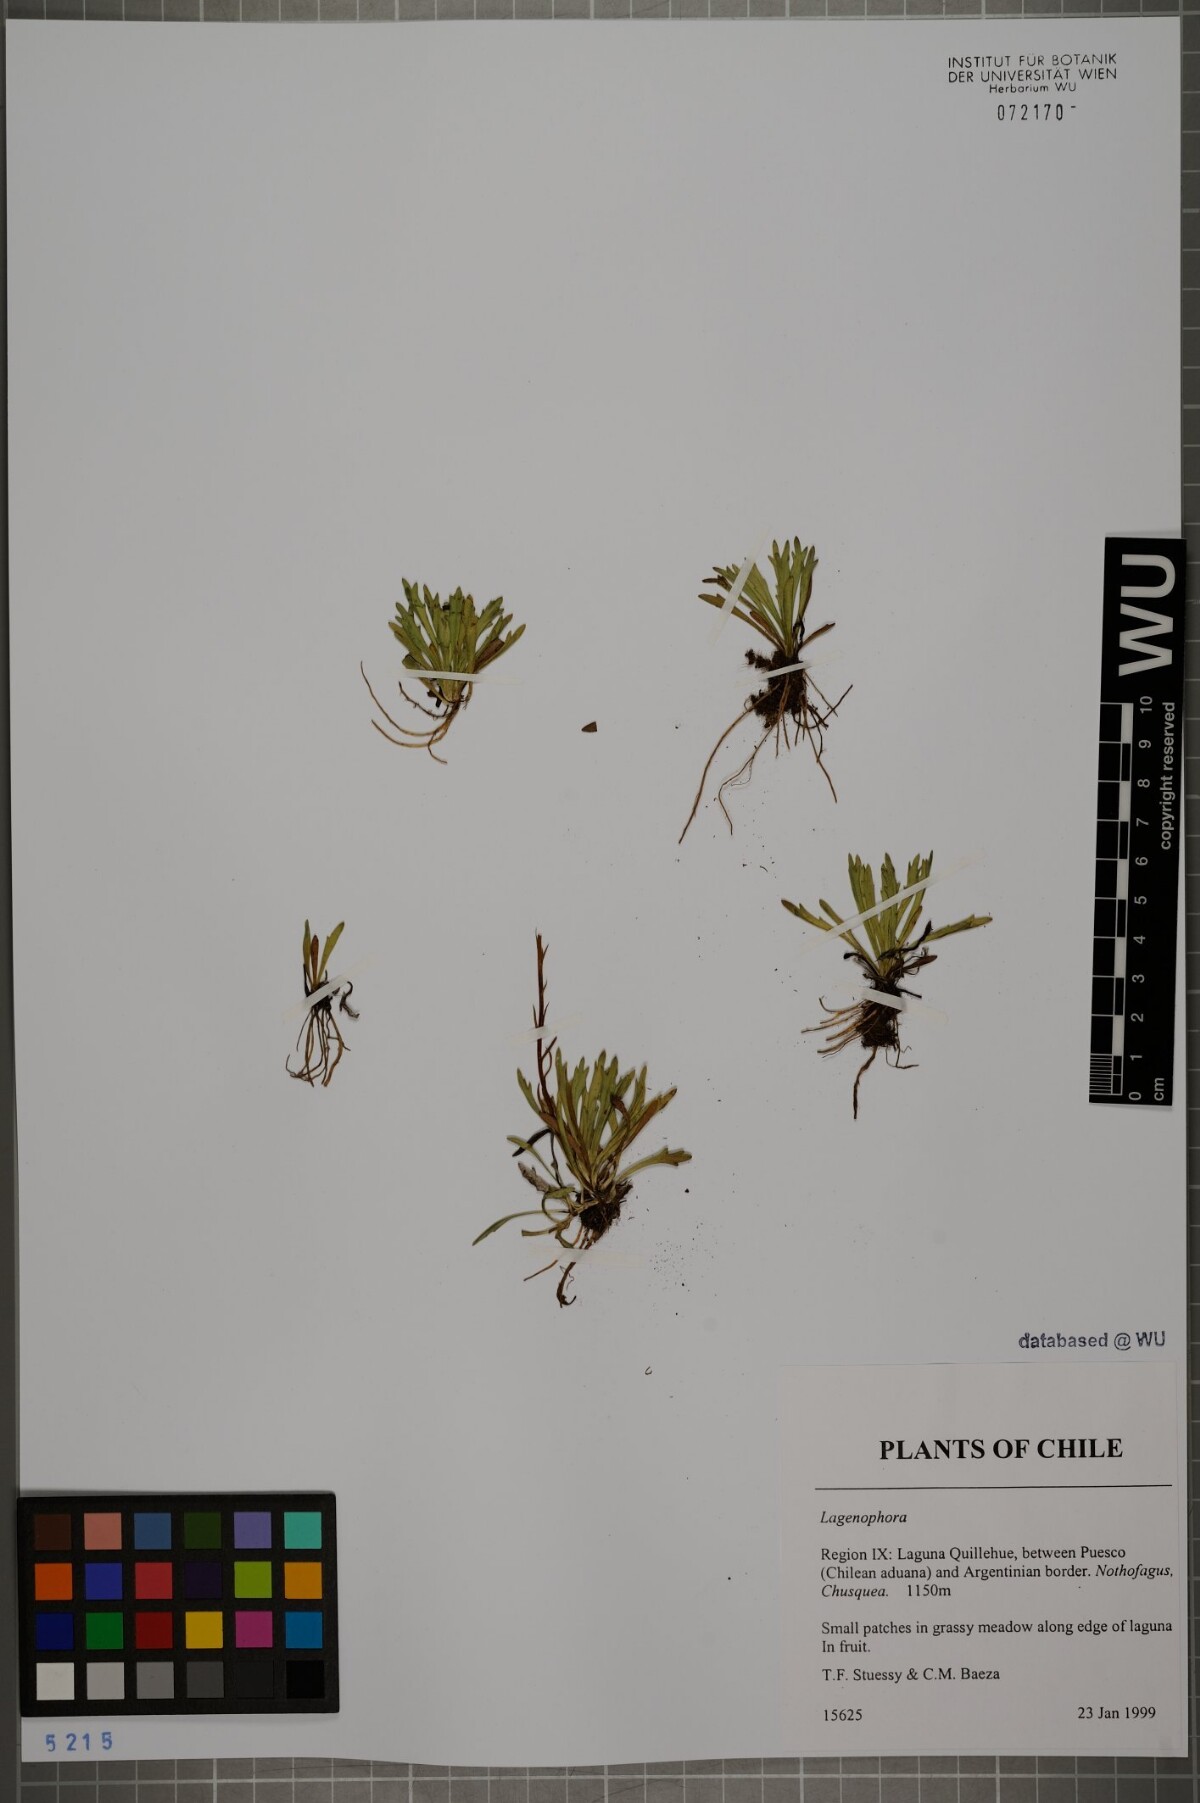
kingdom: Plantae
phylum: Tracheophyta
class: Magnoliopsida
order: Asterales
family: Asteraceae
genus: Lagenophora
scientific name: Lagenophora
